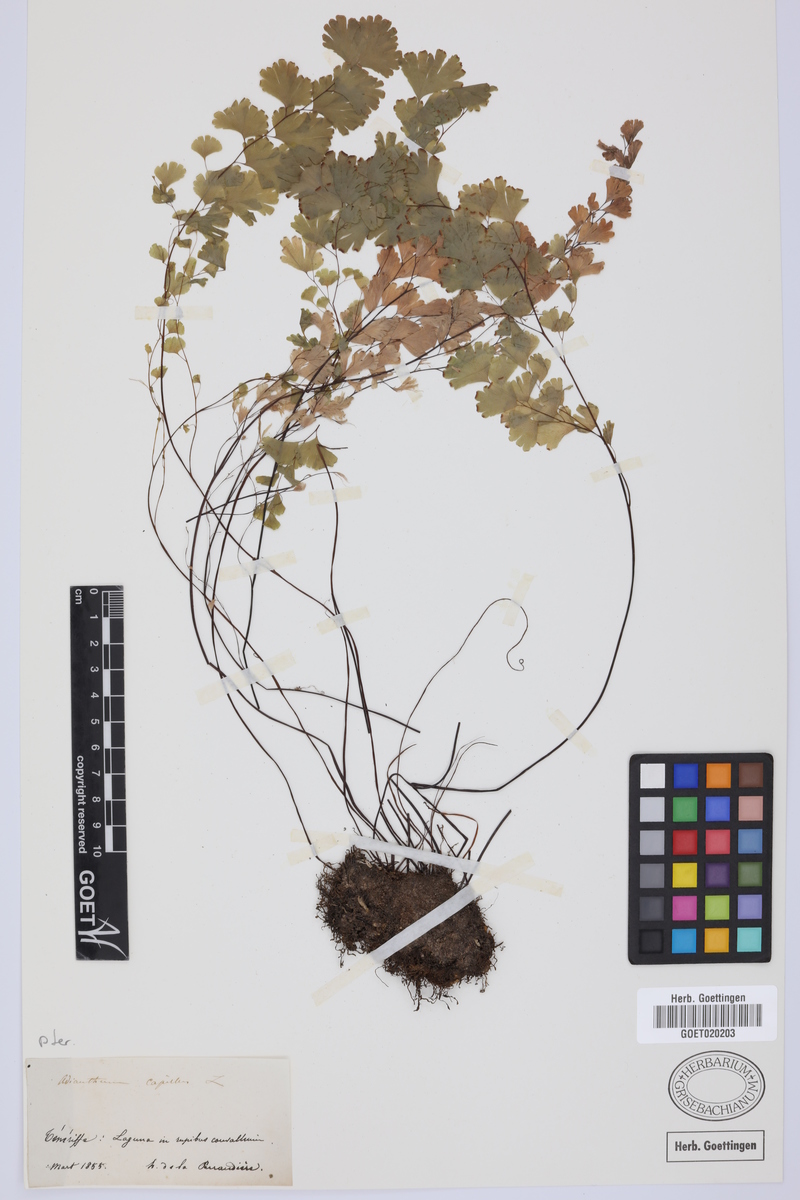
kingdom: Plantae
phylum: Tracheophyta
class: Polypodiopsida
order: Polypodiales
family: Pteridaceae
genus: Adiantum
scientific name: Adiantum capillus-veneris
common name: Maidenhair fern
